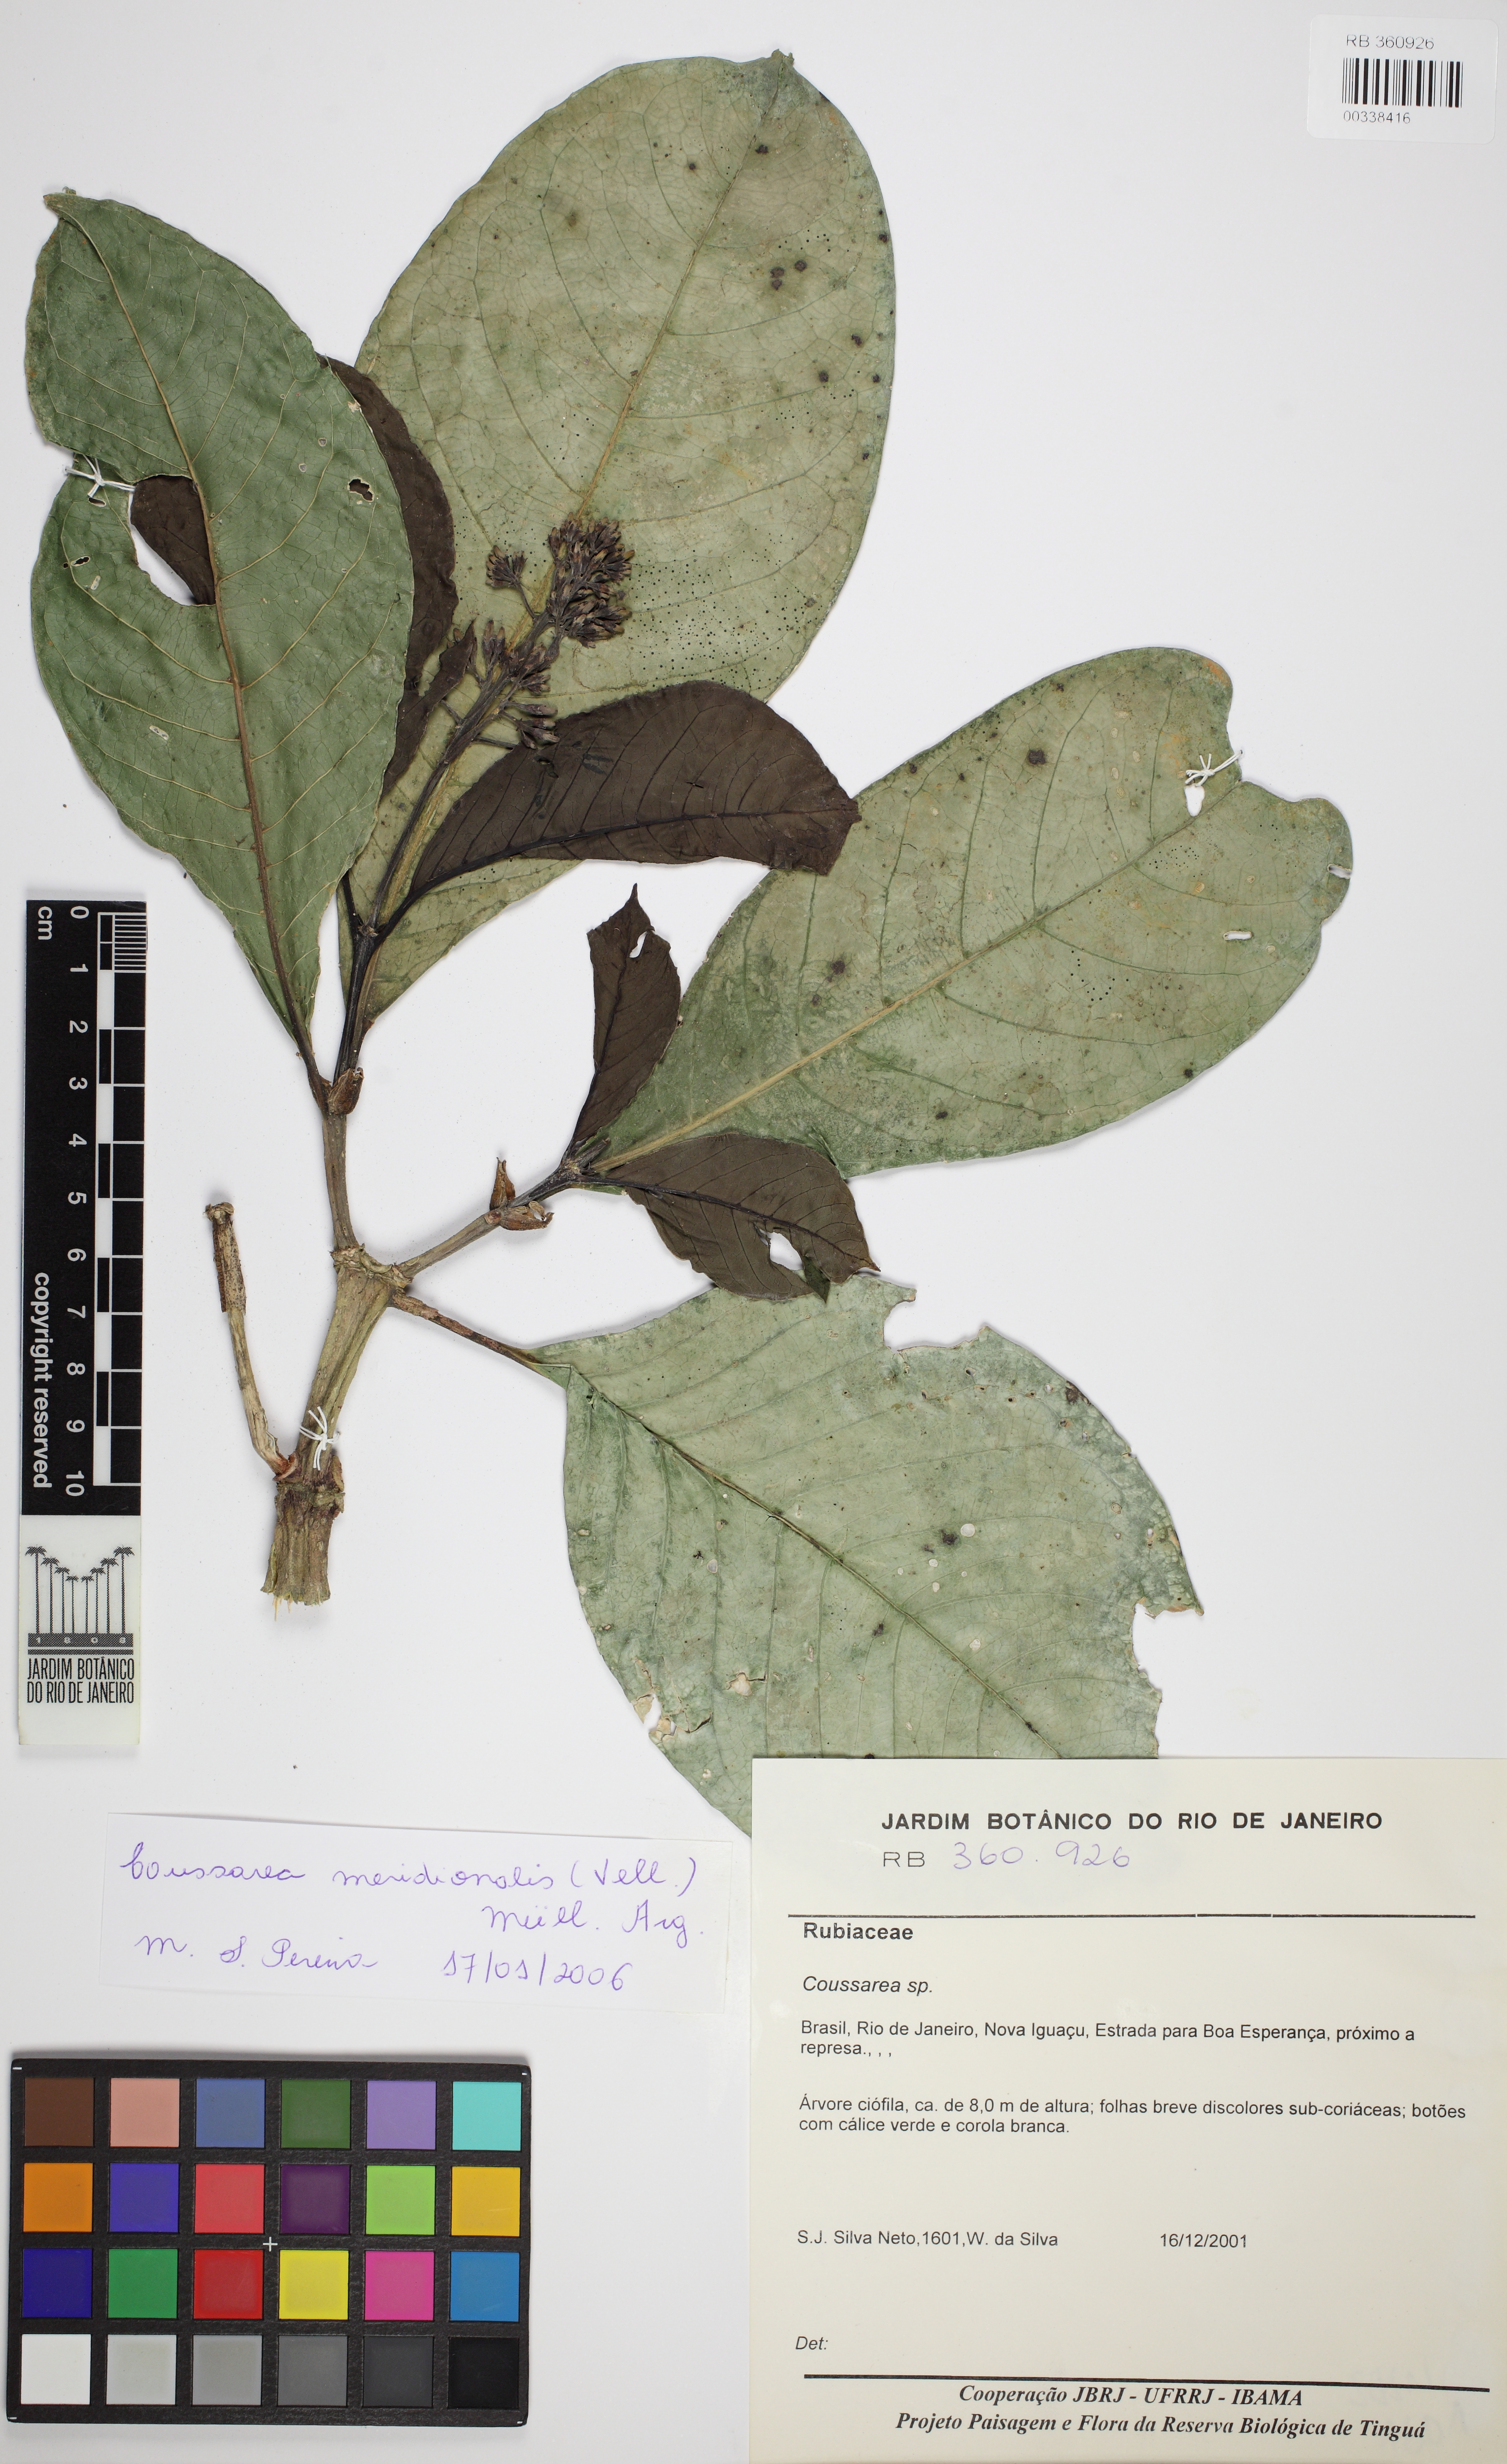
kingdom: Plantae
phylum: Tracheophyta
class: Magnoliopsida
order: Gentianales
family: Rubiaceae
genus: Coussarea
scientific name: Coussarea
